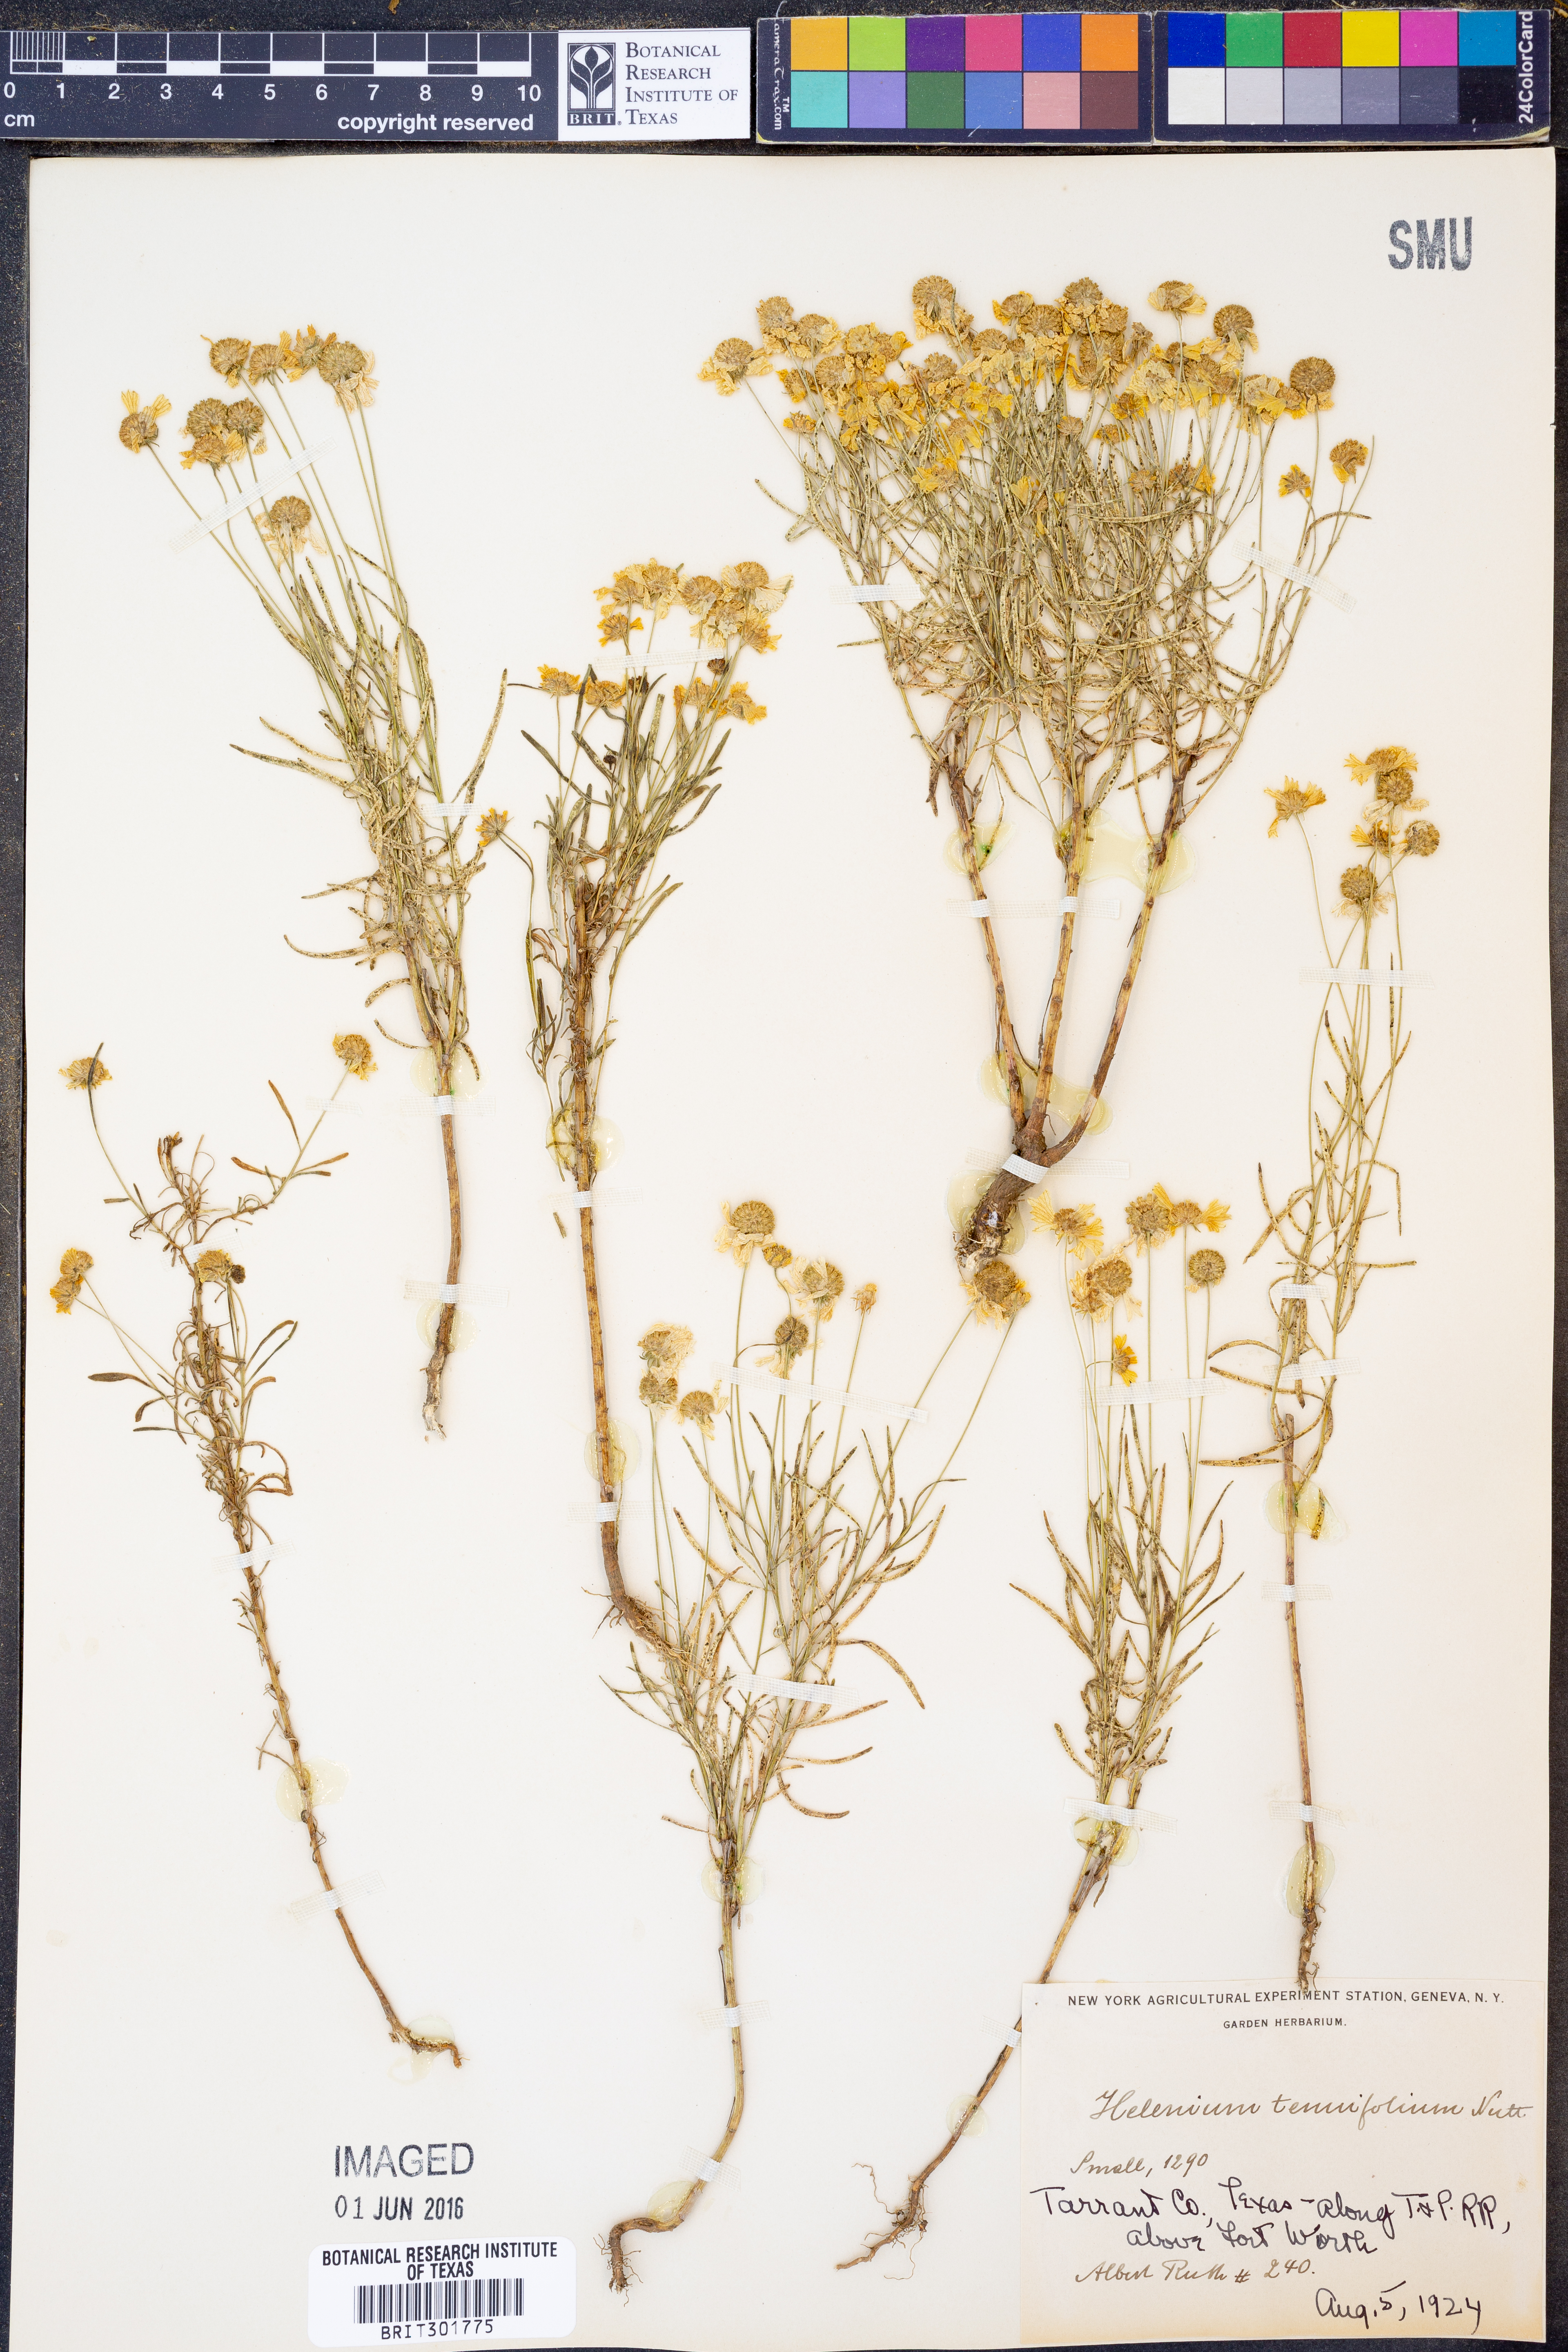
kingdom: Plantae
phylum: Tracheophyta
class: Magnoliopsida
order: Asterales
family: Asteraceae
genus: Helenium
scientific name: Helenium amarum
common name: Bitter sneezeweed
